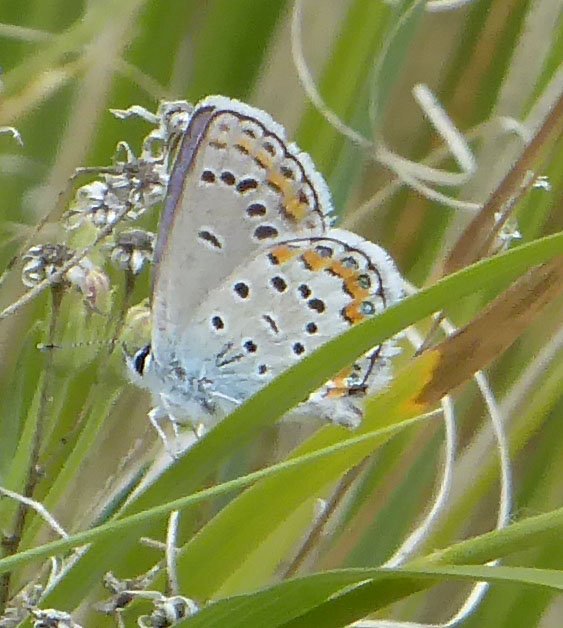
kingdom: Animalia
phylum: Arthropoda
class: Insecta
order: Lepidoptera
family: Lycaenidae
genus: Lycaeides
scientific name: Lycaeides melissa
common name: Melissa Blue
